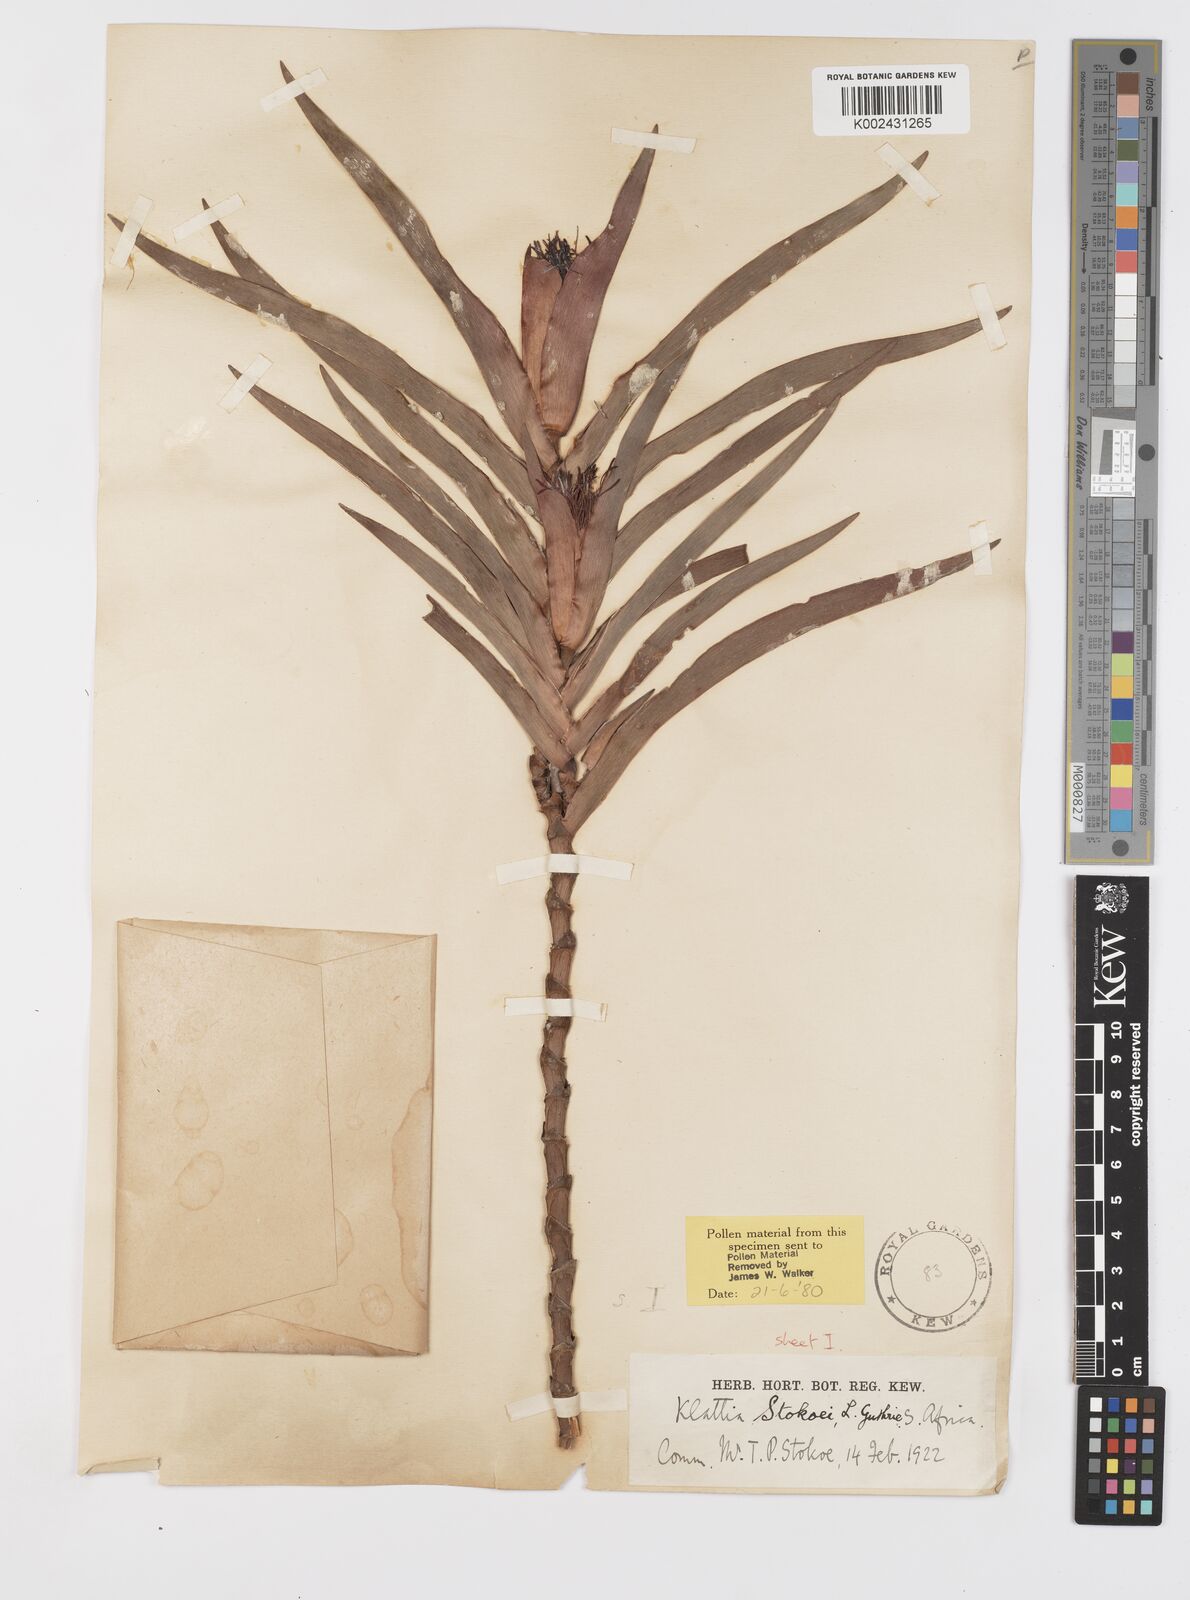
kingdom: Plantae
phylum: Tracheophyta
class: Liliopsida
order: Asparagales
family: Iridaceae
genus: Klattia
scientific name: Klattia stokoei
